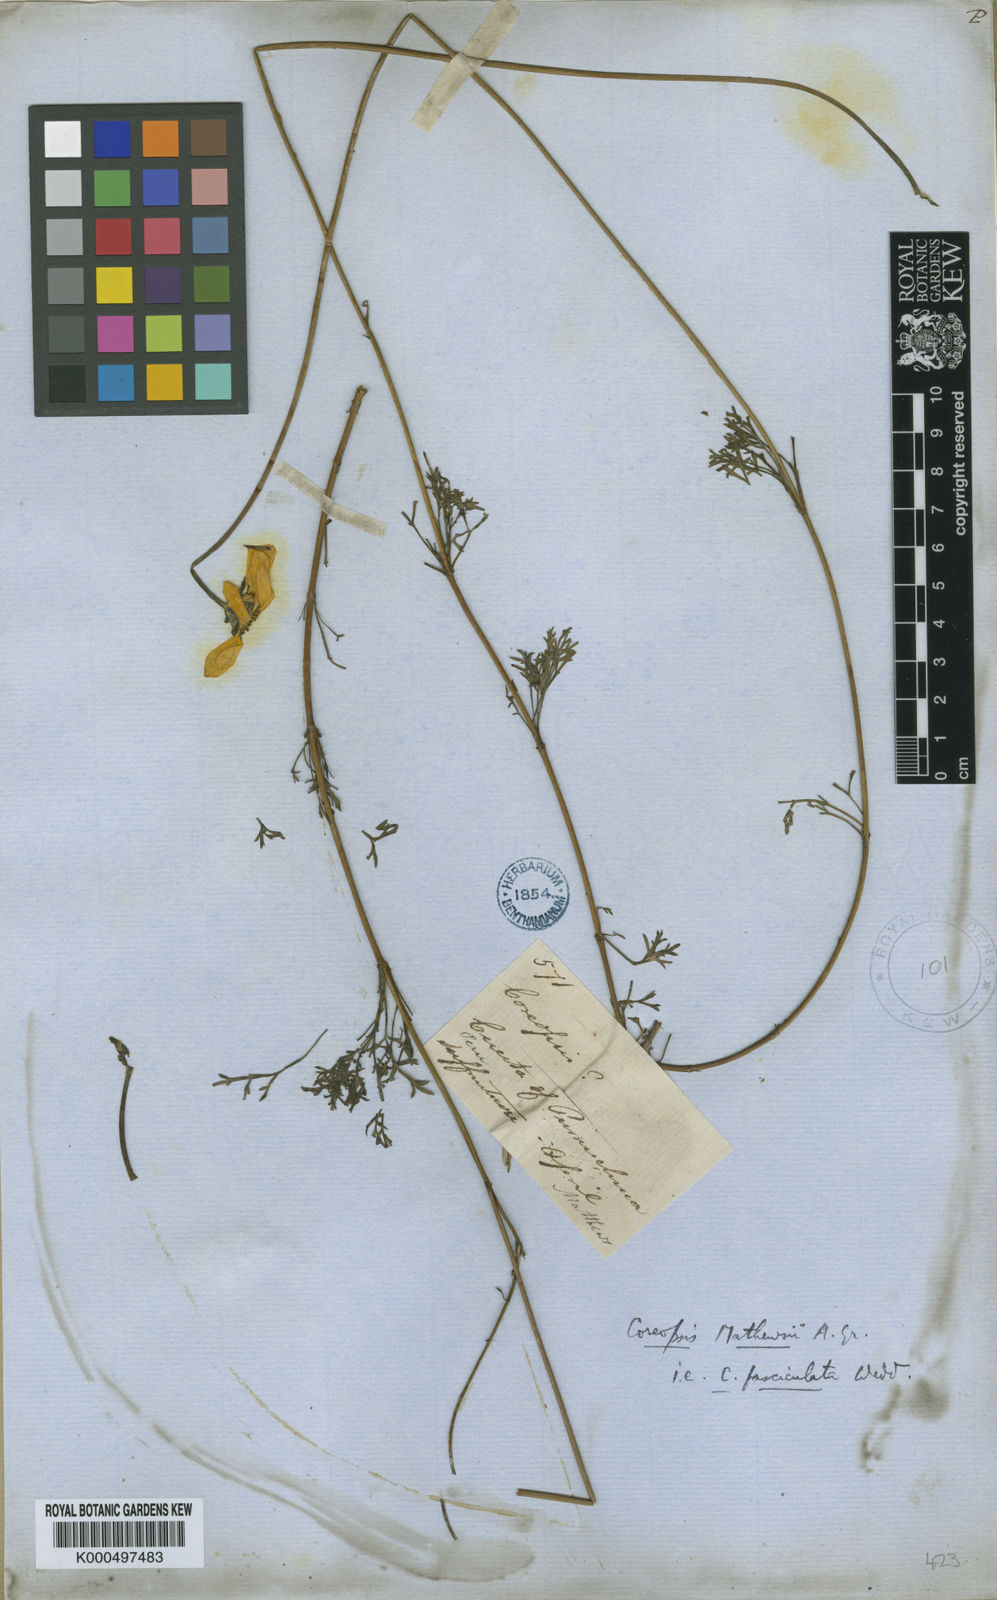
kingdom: Plantae
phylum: Tracheophyta
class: Magnoliopsida
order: Asterales
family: Asteraceae
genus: Coreopsis
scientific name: Coreopsis fasciculata
